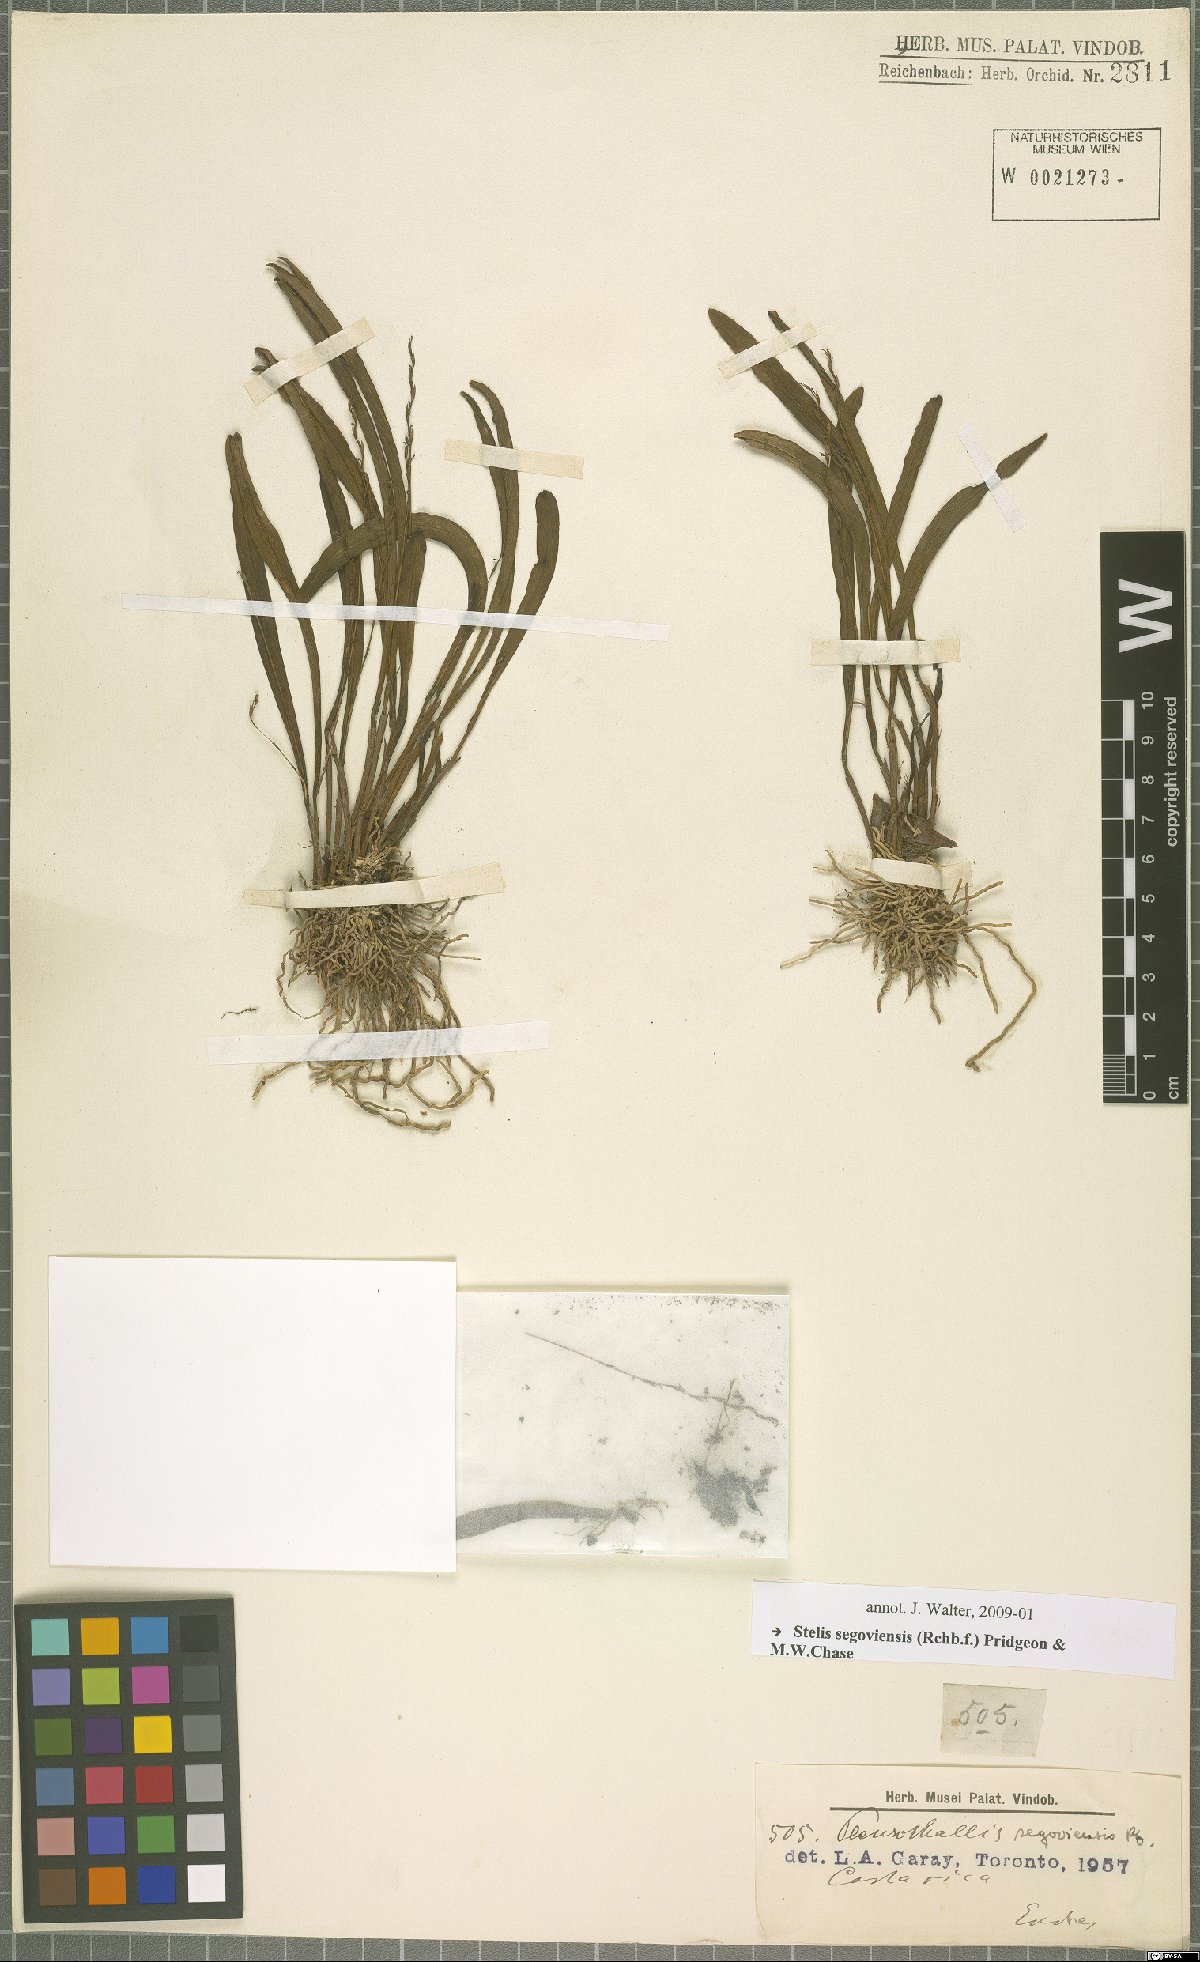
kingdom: Plantae
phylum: Tracheophyta
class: Liliopsida
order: Asparagales
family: Orchidaceae
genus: Stelis
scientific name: Stelis segoviensis
